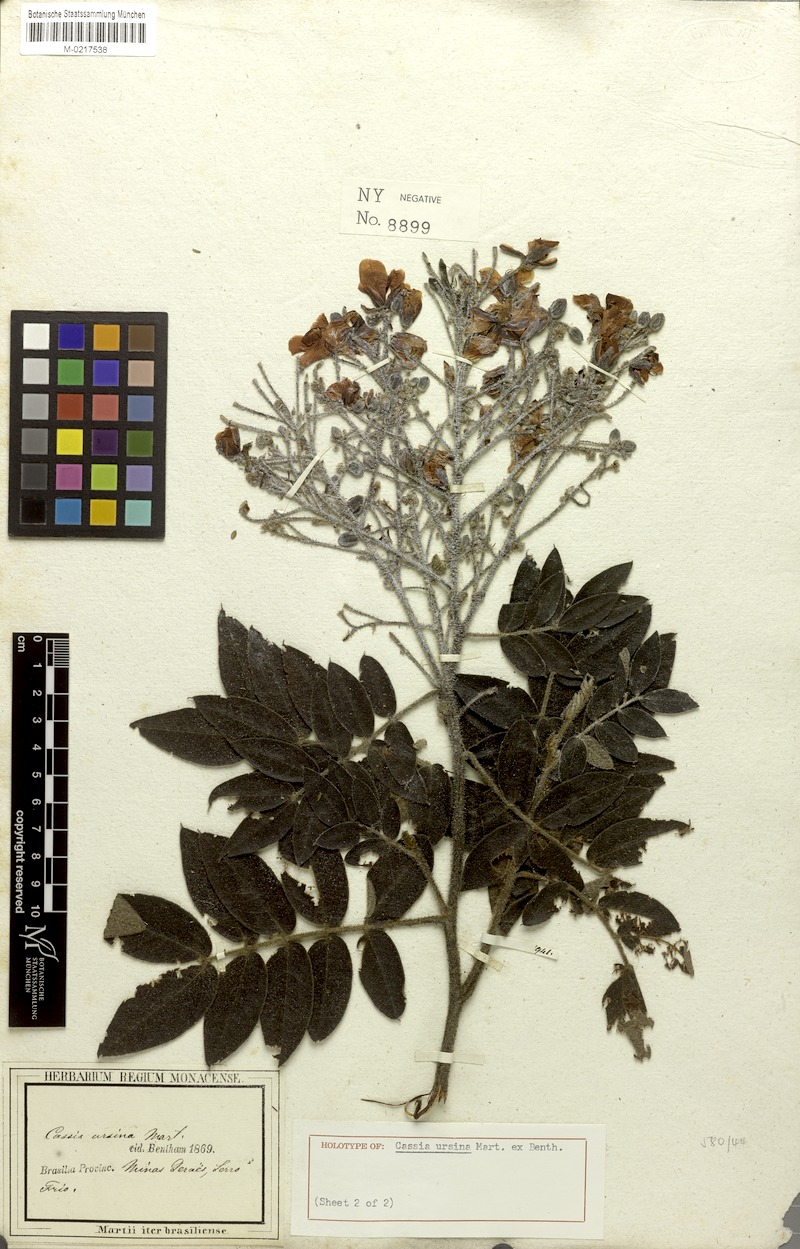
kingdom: Plantae
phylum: Tracheophyta
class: Magnoliopsida
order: Fabales
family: Fabaceae
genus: Chamaecrista
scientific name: Chamaecrista ursina
